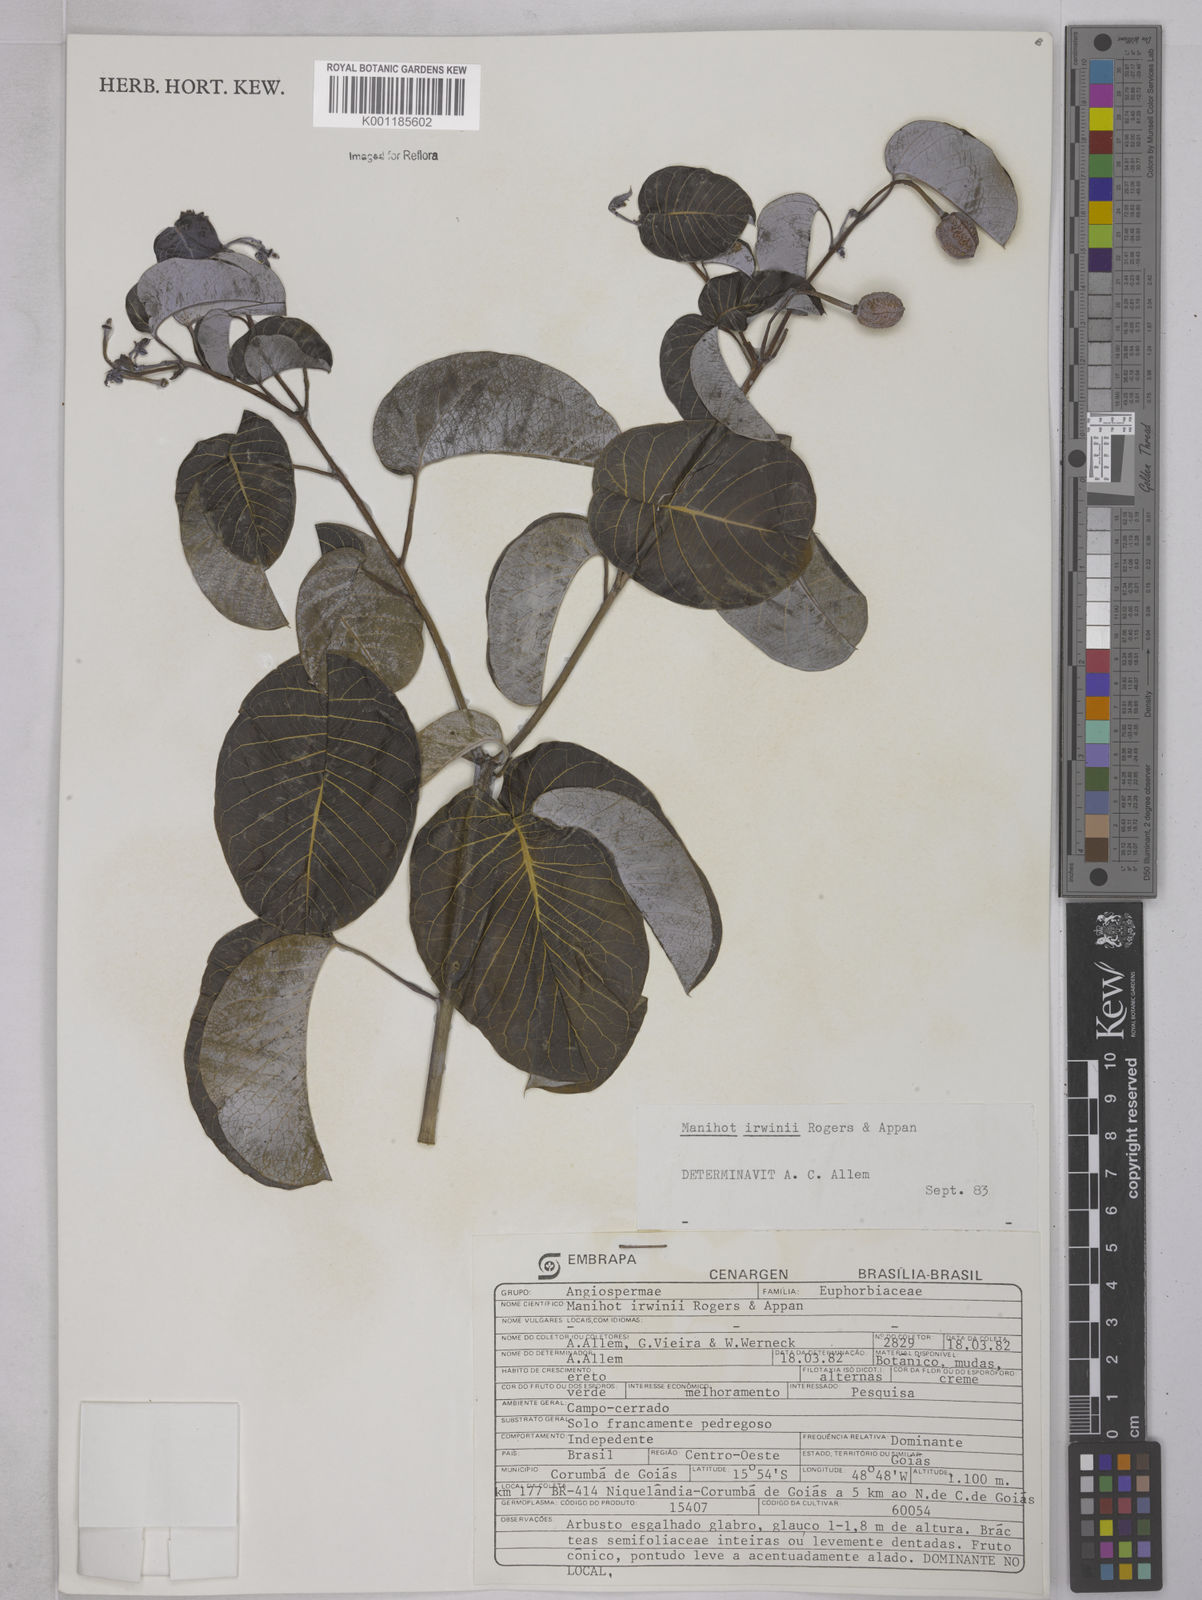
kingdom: Plantae
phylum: Tracheophyta
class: Magnoliopsida
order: Malpighiales
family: Euphorbiaceae
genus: Manihot
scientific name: Manihot irwinii
